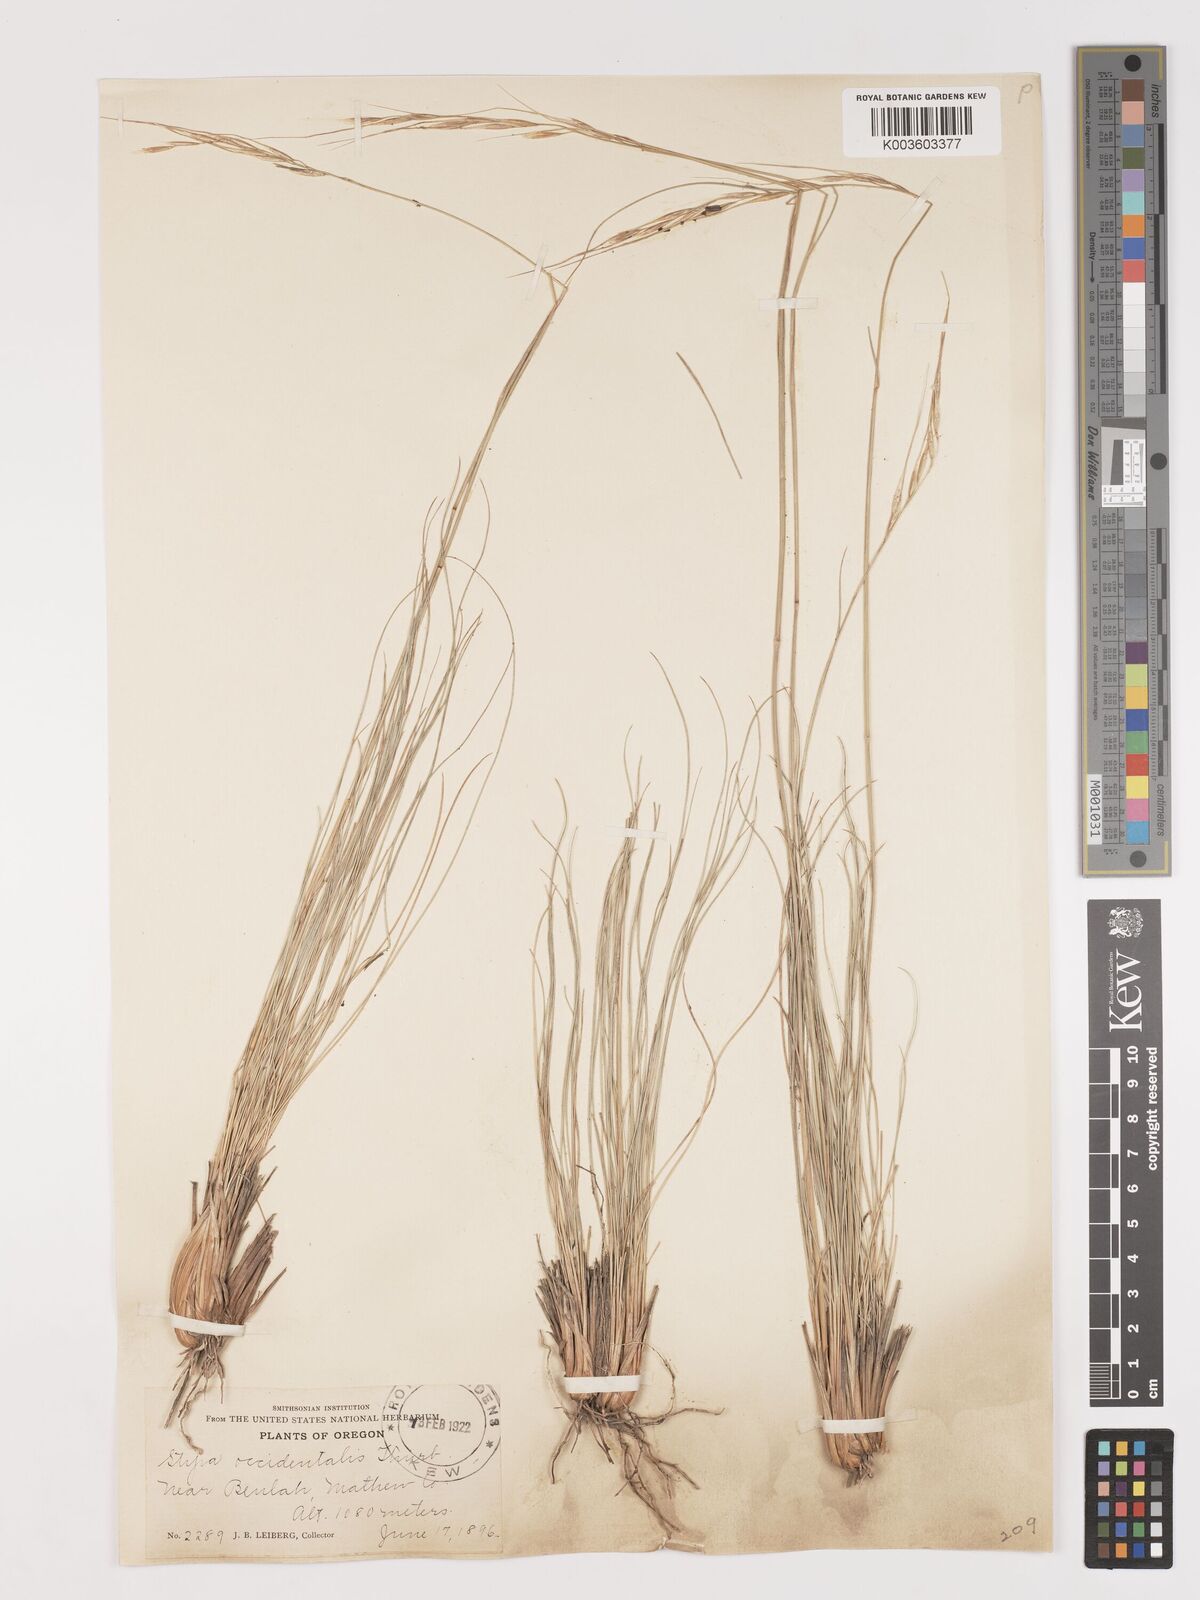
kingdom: Plantae
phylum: Tracheophyta
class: Liliopsida
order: Poales
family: Poaceae
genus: Eriocoma
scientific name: Eriocoma thurberiana
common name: Thurber's needlegrass
